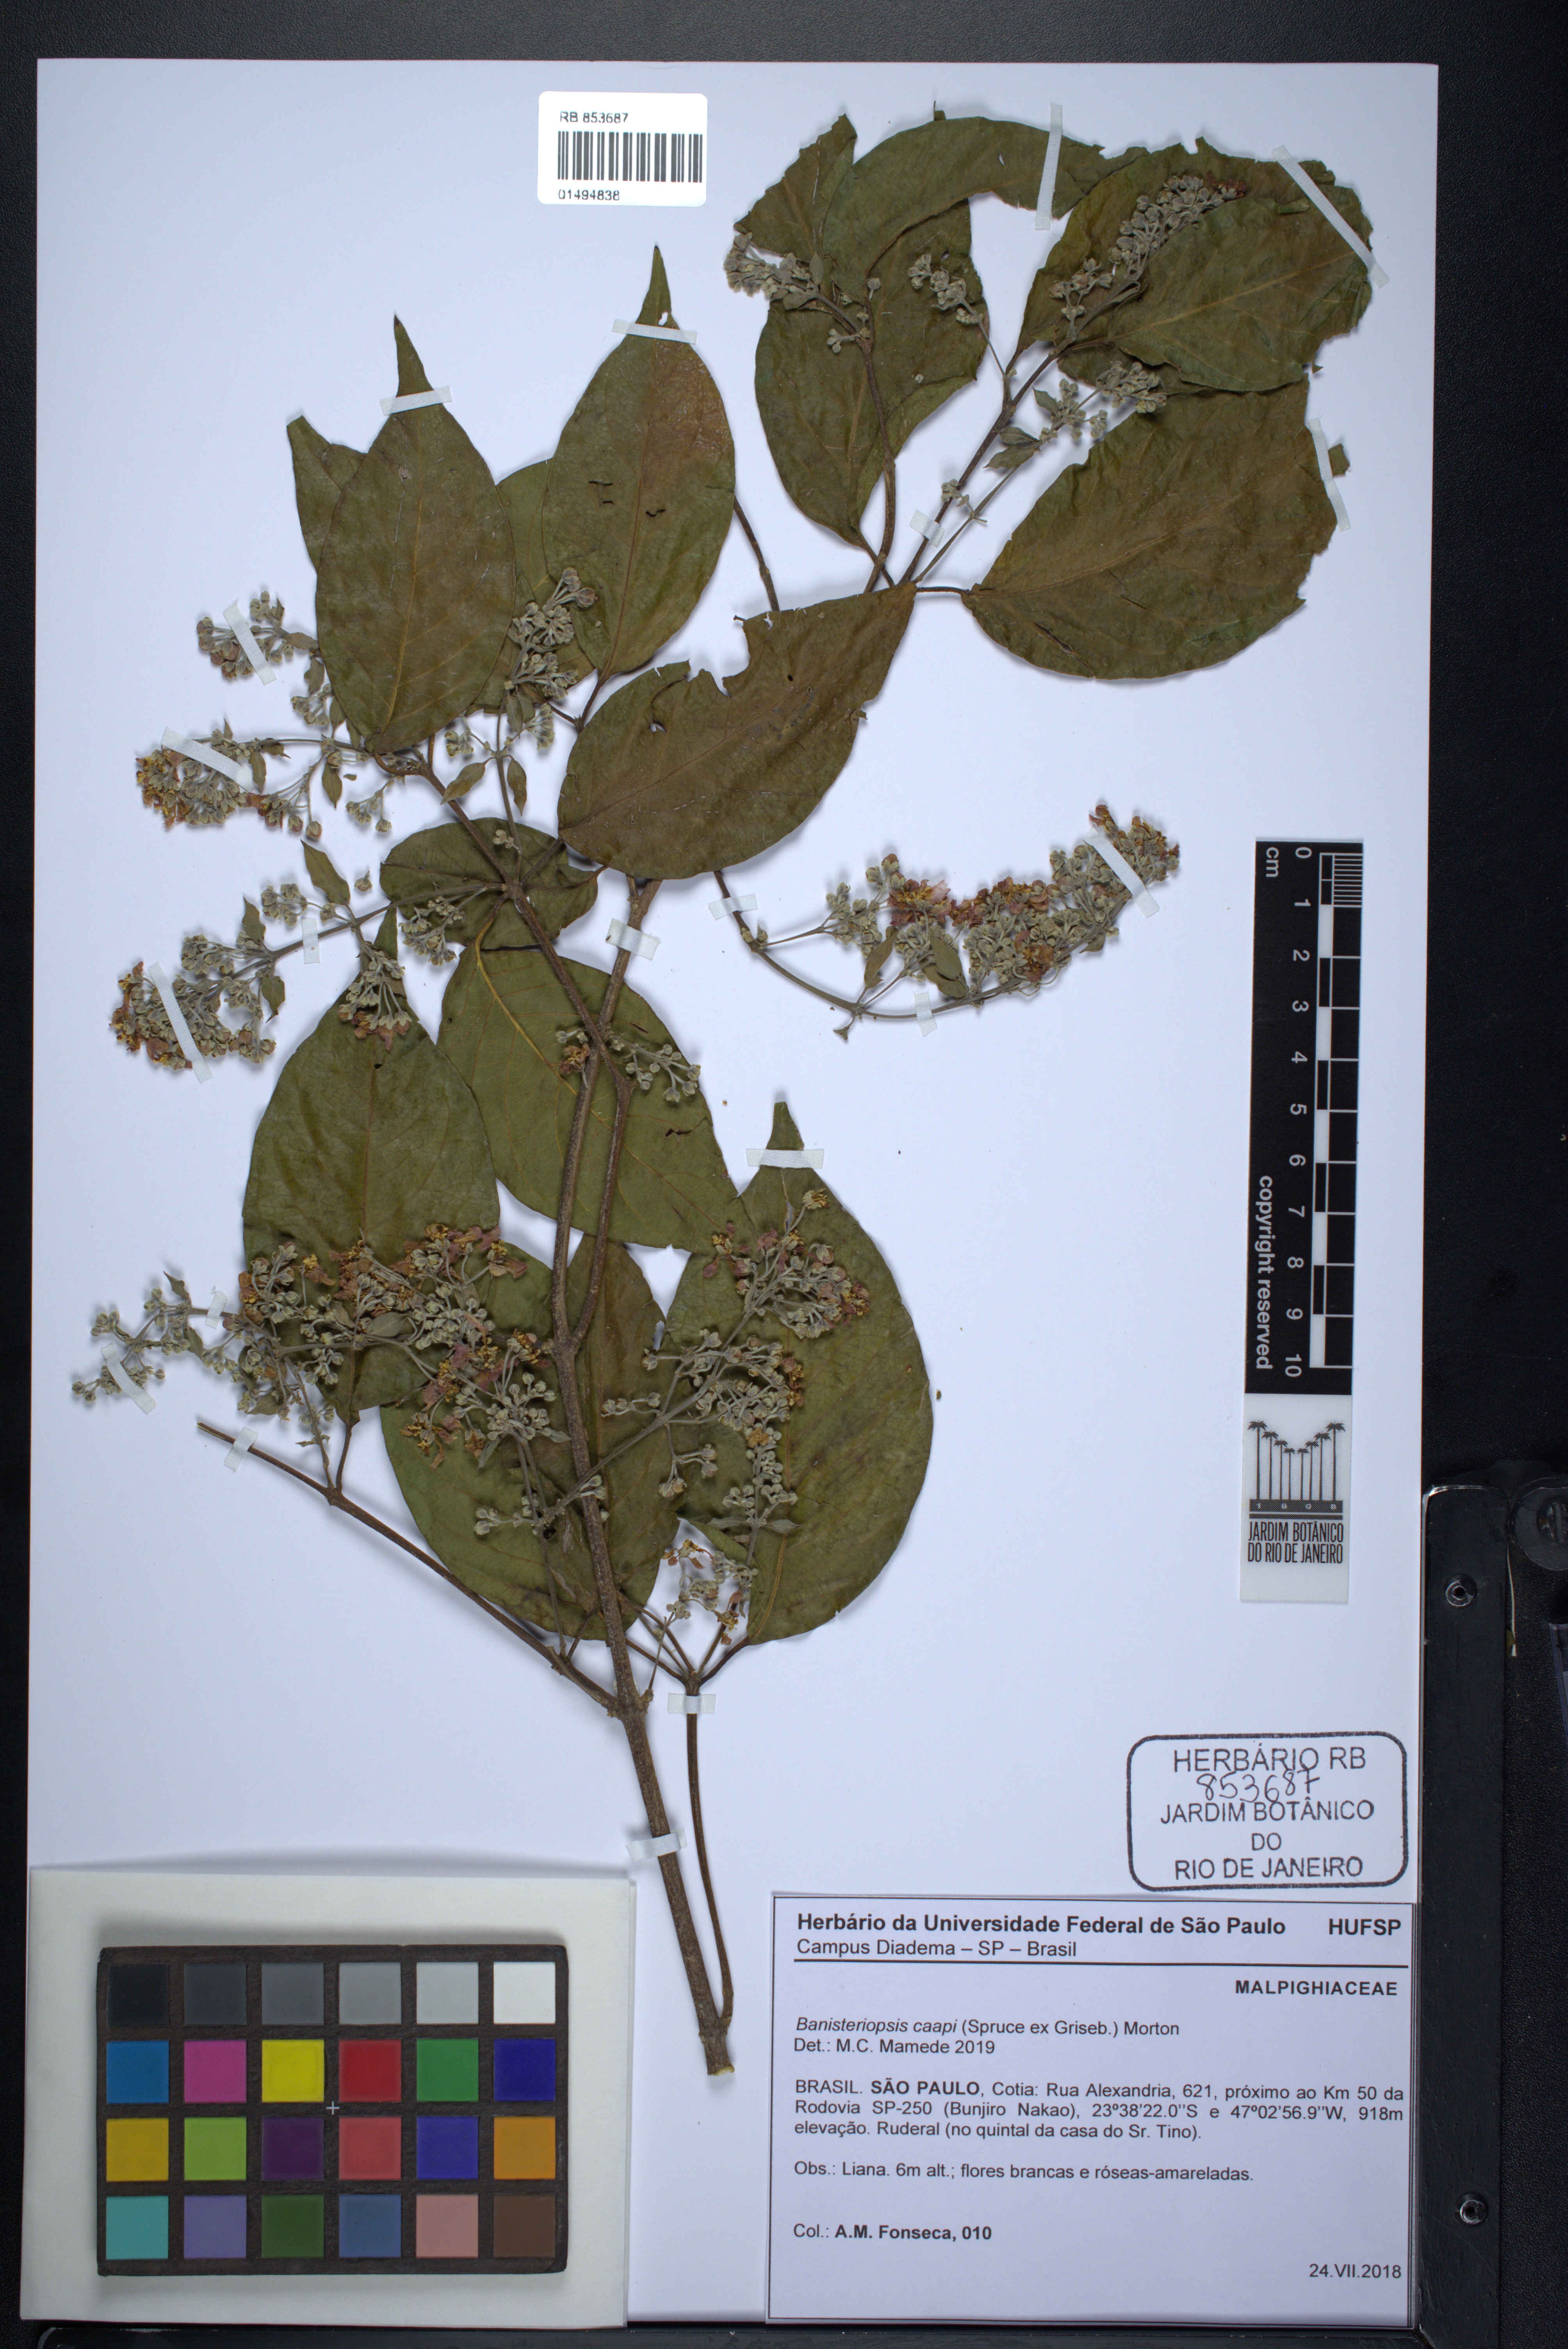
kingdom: Plantae
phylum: Tracheophyta
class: Magnoliopsida
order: Malpighiales
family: Malpighiaceae
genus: Banisteriopsis
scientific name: Banisteriopsis caapi
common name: Soulvine
